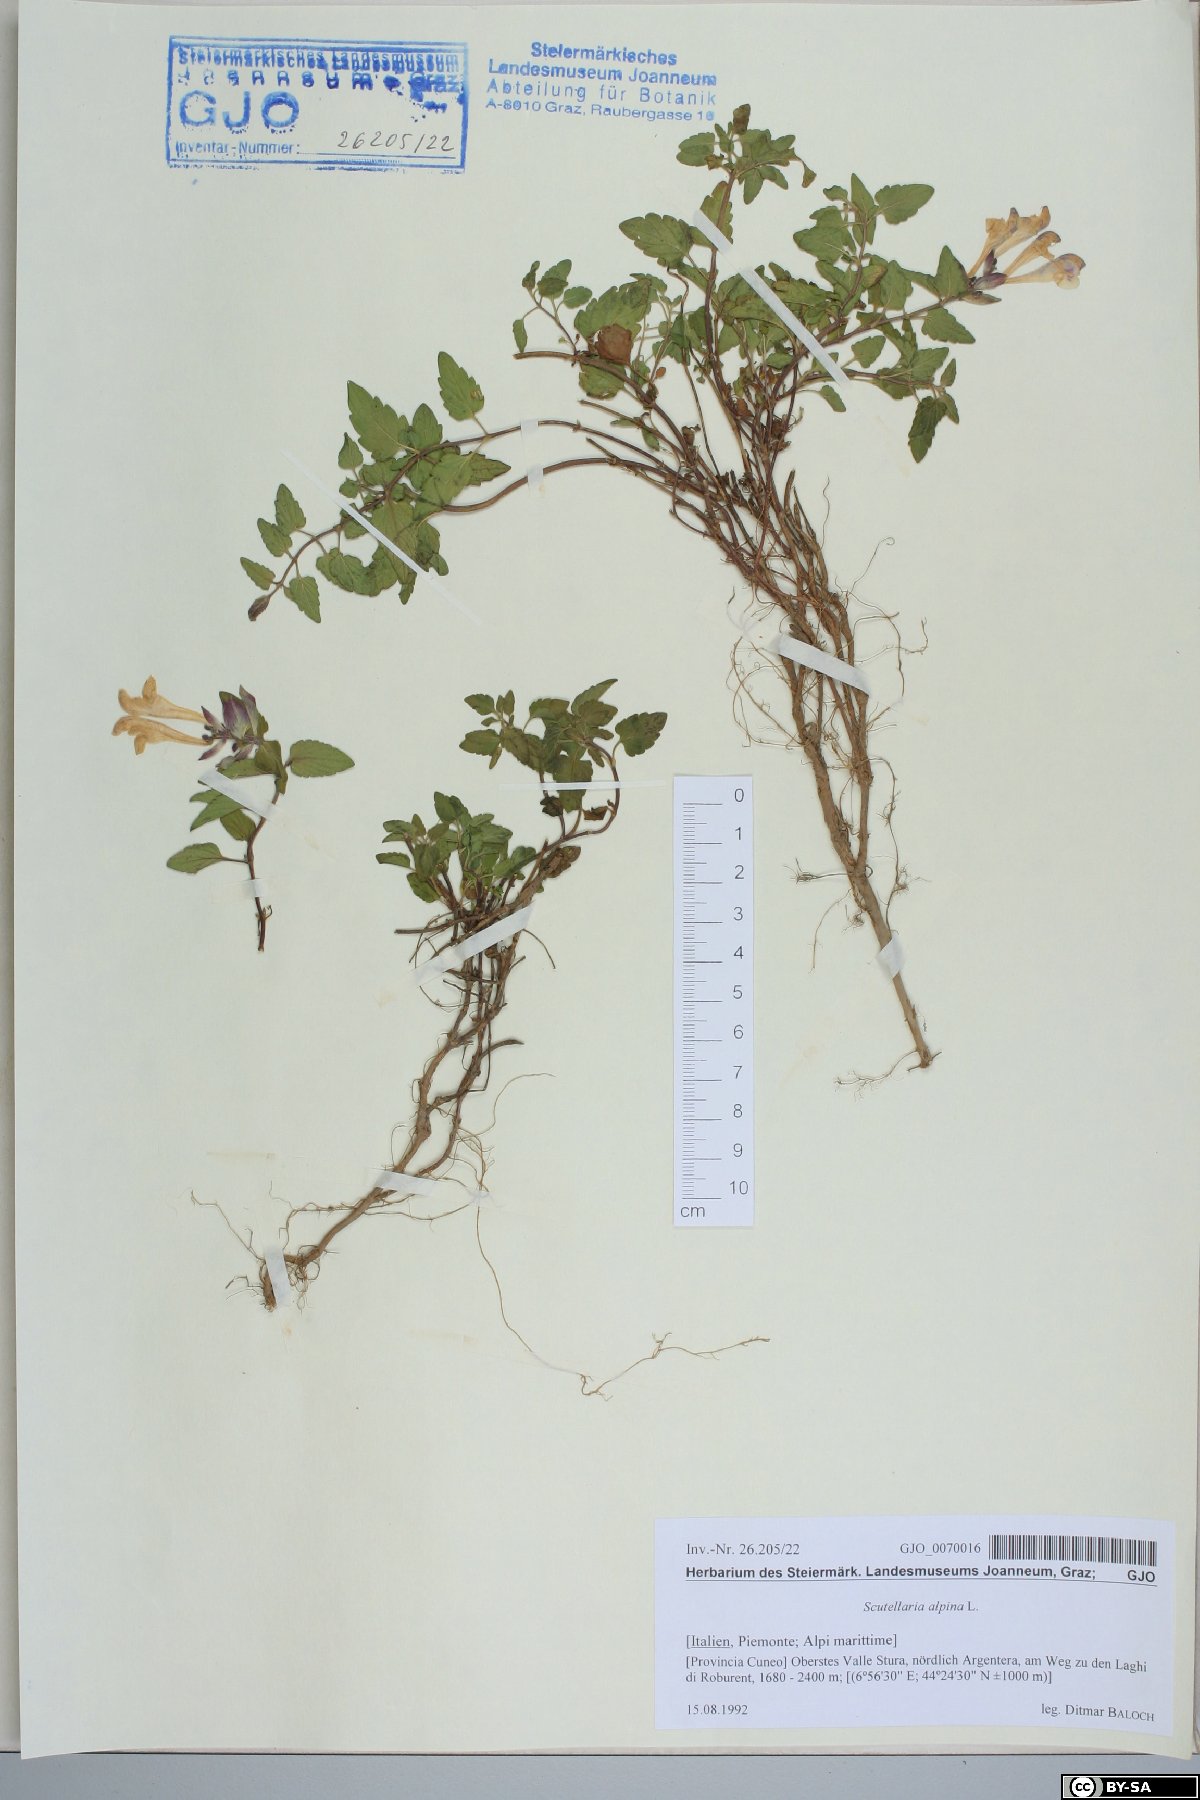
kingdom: Plantae
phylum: Tracheophyta
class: Magnoliopsida
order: Lamiales
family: Lamiaceae
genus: Scutellaria
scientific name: Scutellaria alpina
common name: Alpine scullcap
